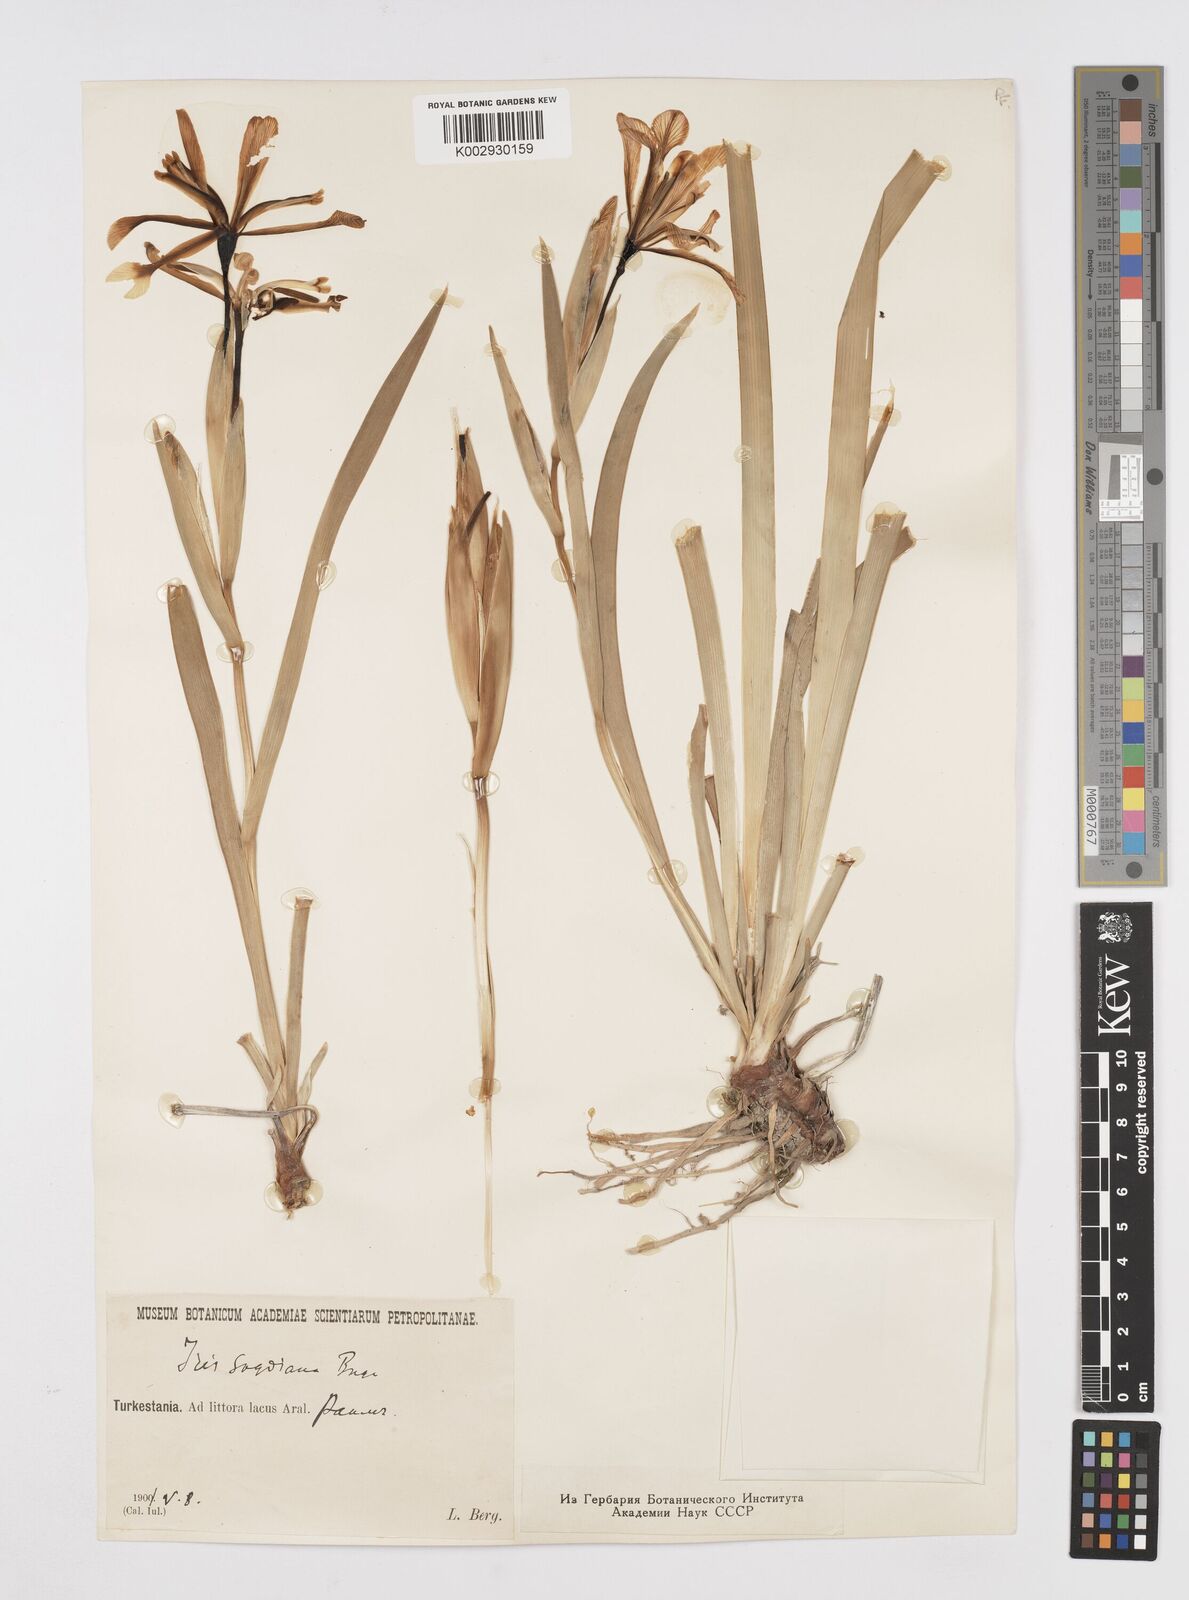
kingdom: Plantae
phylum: Tracheophyta
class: Liliopsida
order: Asparagales
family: Iridaceae
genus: Iris
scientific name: Iris halophila
